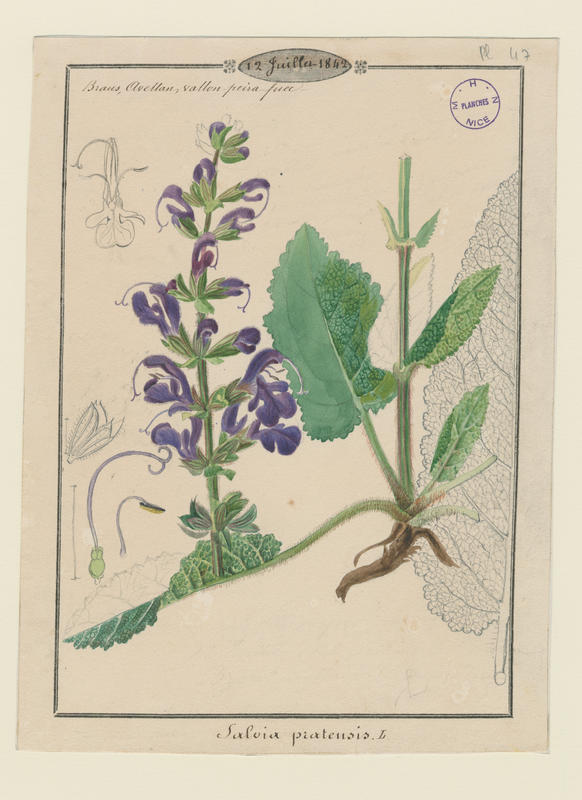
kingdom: Plantae
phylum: Tracheophyta
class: Magnoliopsida
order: Lamiales
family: Lamiaceae
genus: Salvia
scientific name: Salvia pratensis
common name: Meadow sage
